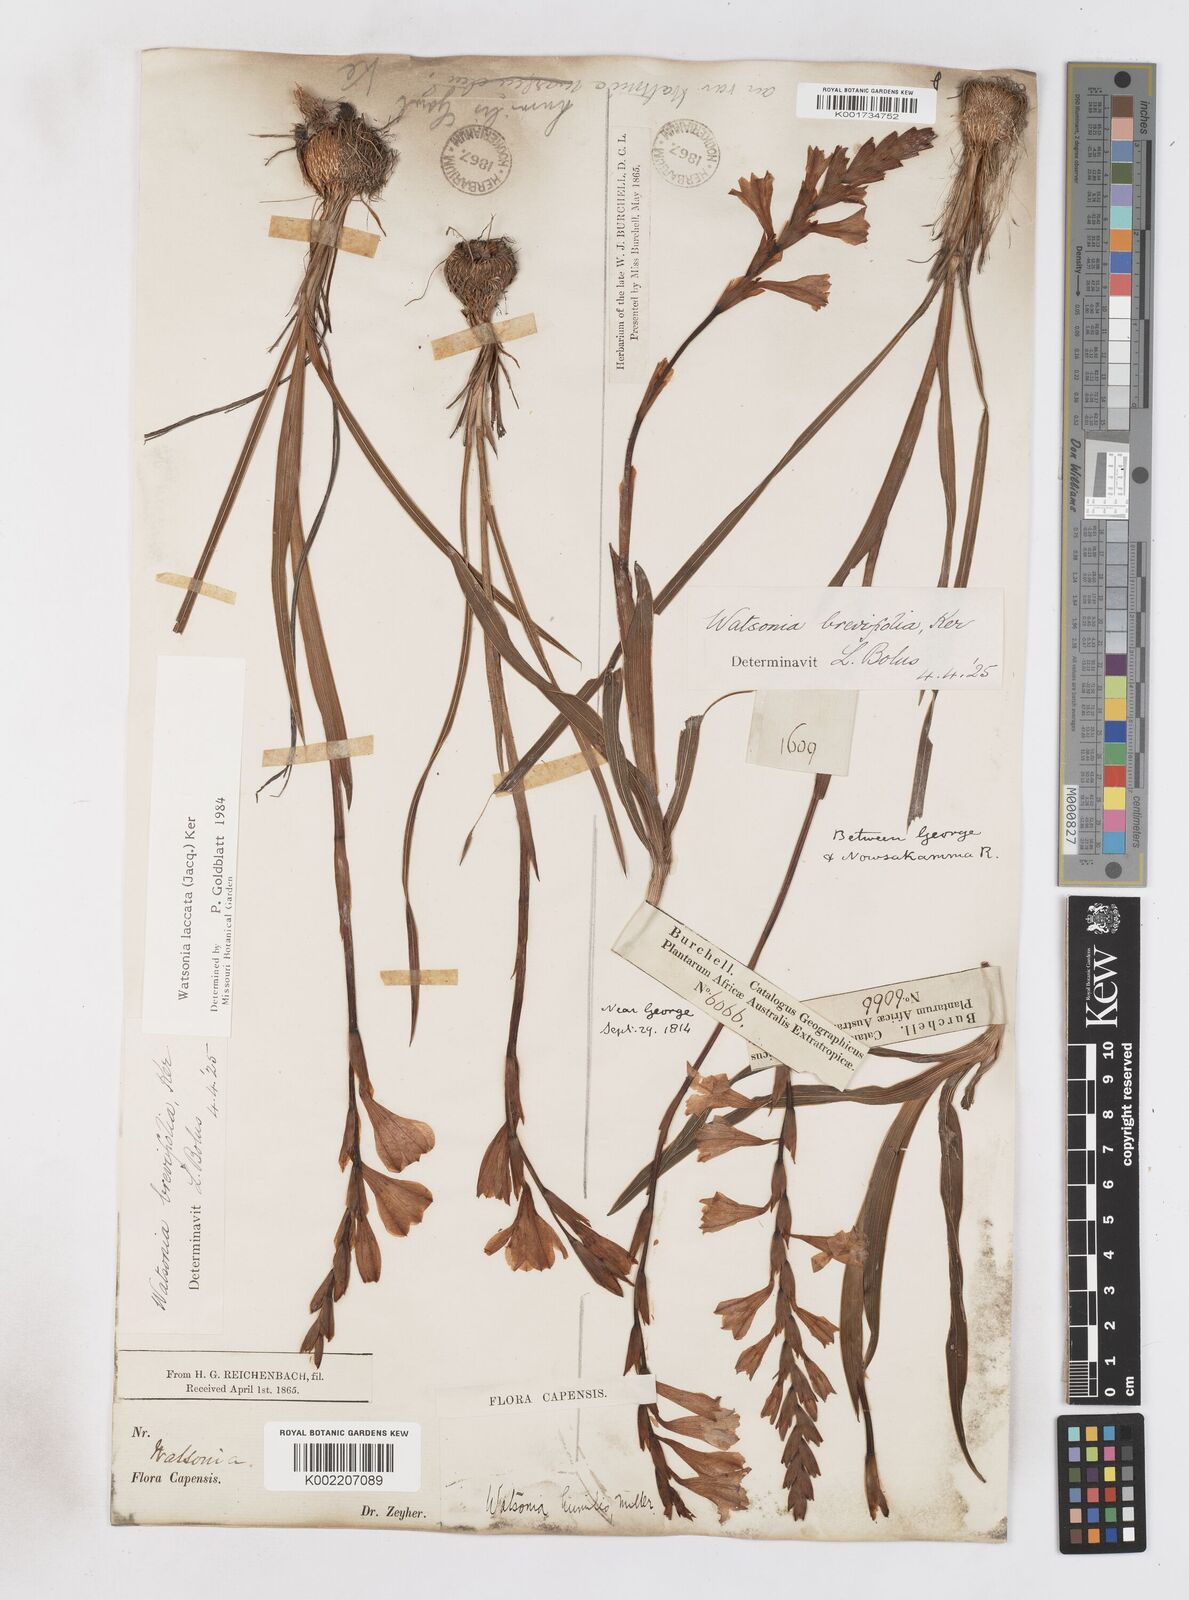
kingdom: Plantae
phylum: Tracheophyta
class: Liliopsida
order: Asparagales
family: Iridaceae
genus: Watsonia
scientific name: Watsonia laccata
